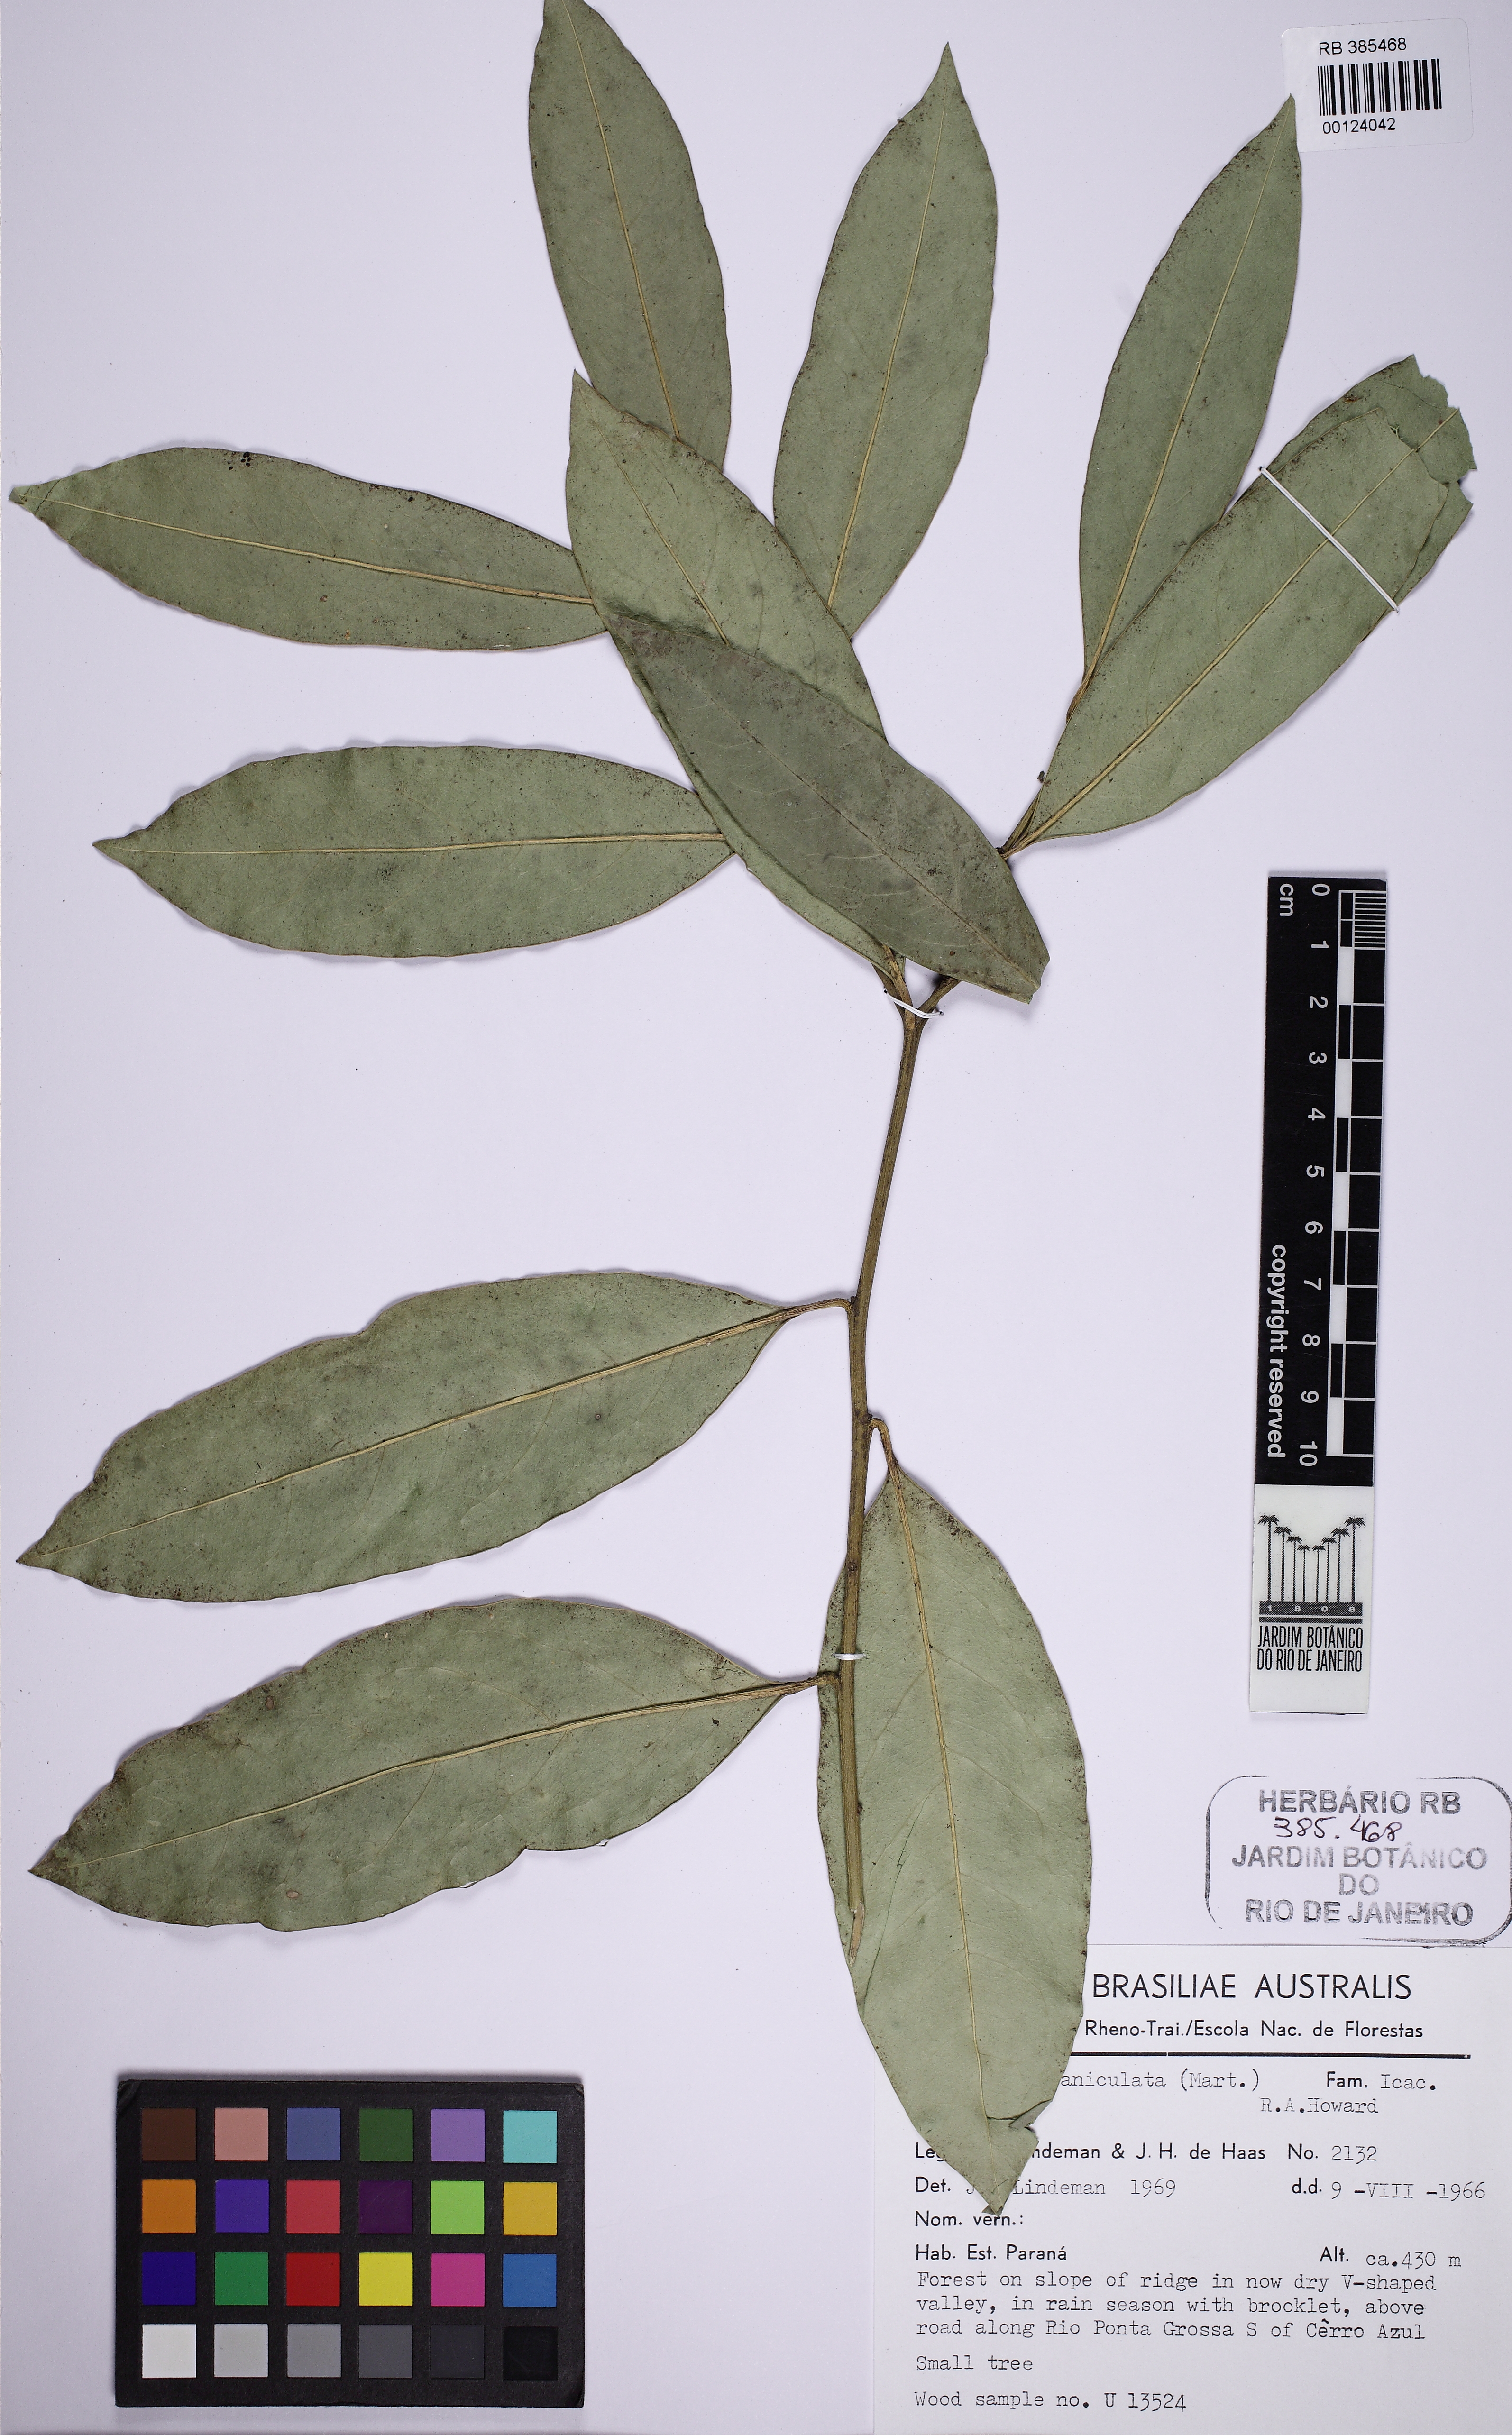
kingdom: Plantae
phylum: Tracheophyta
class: Magnoliopsida
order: Cardiopteridales
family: Cardiopteridaceae
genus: Citronella
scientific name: Citronella paniculata
